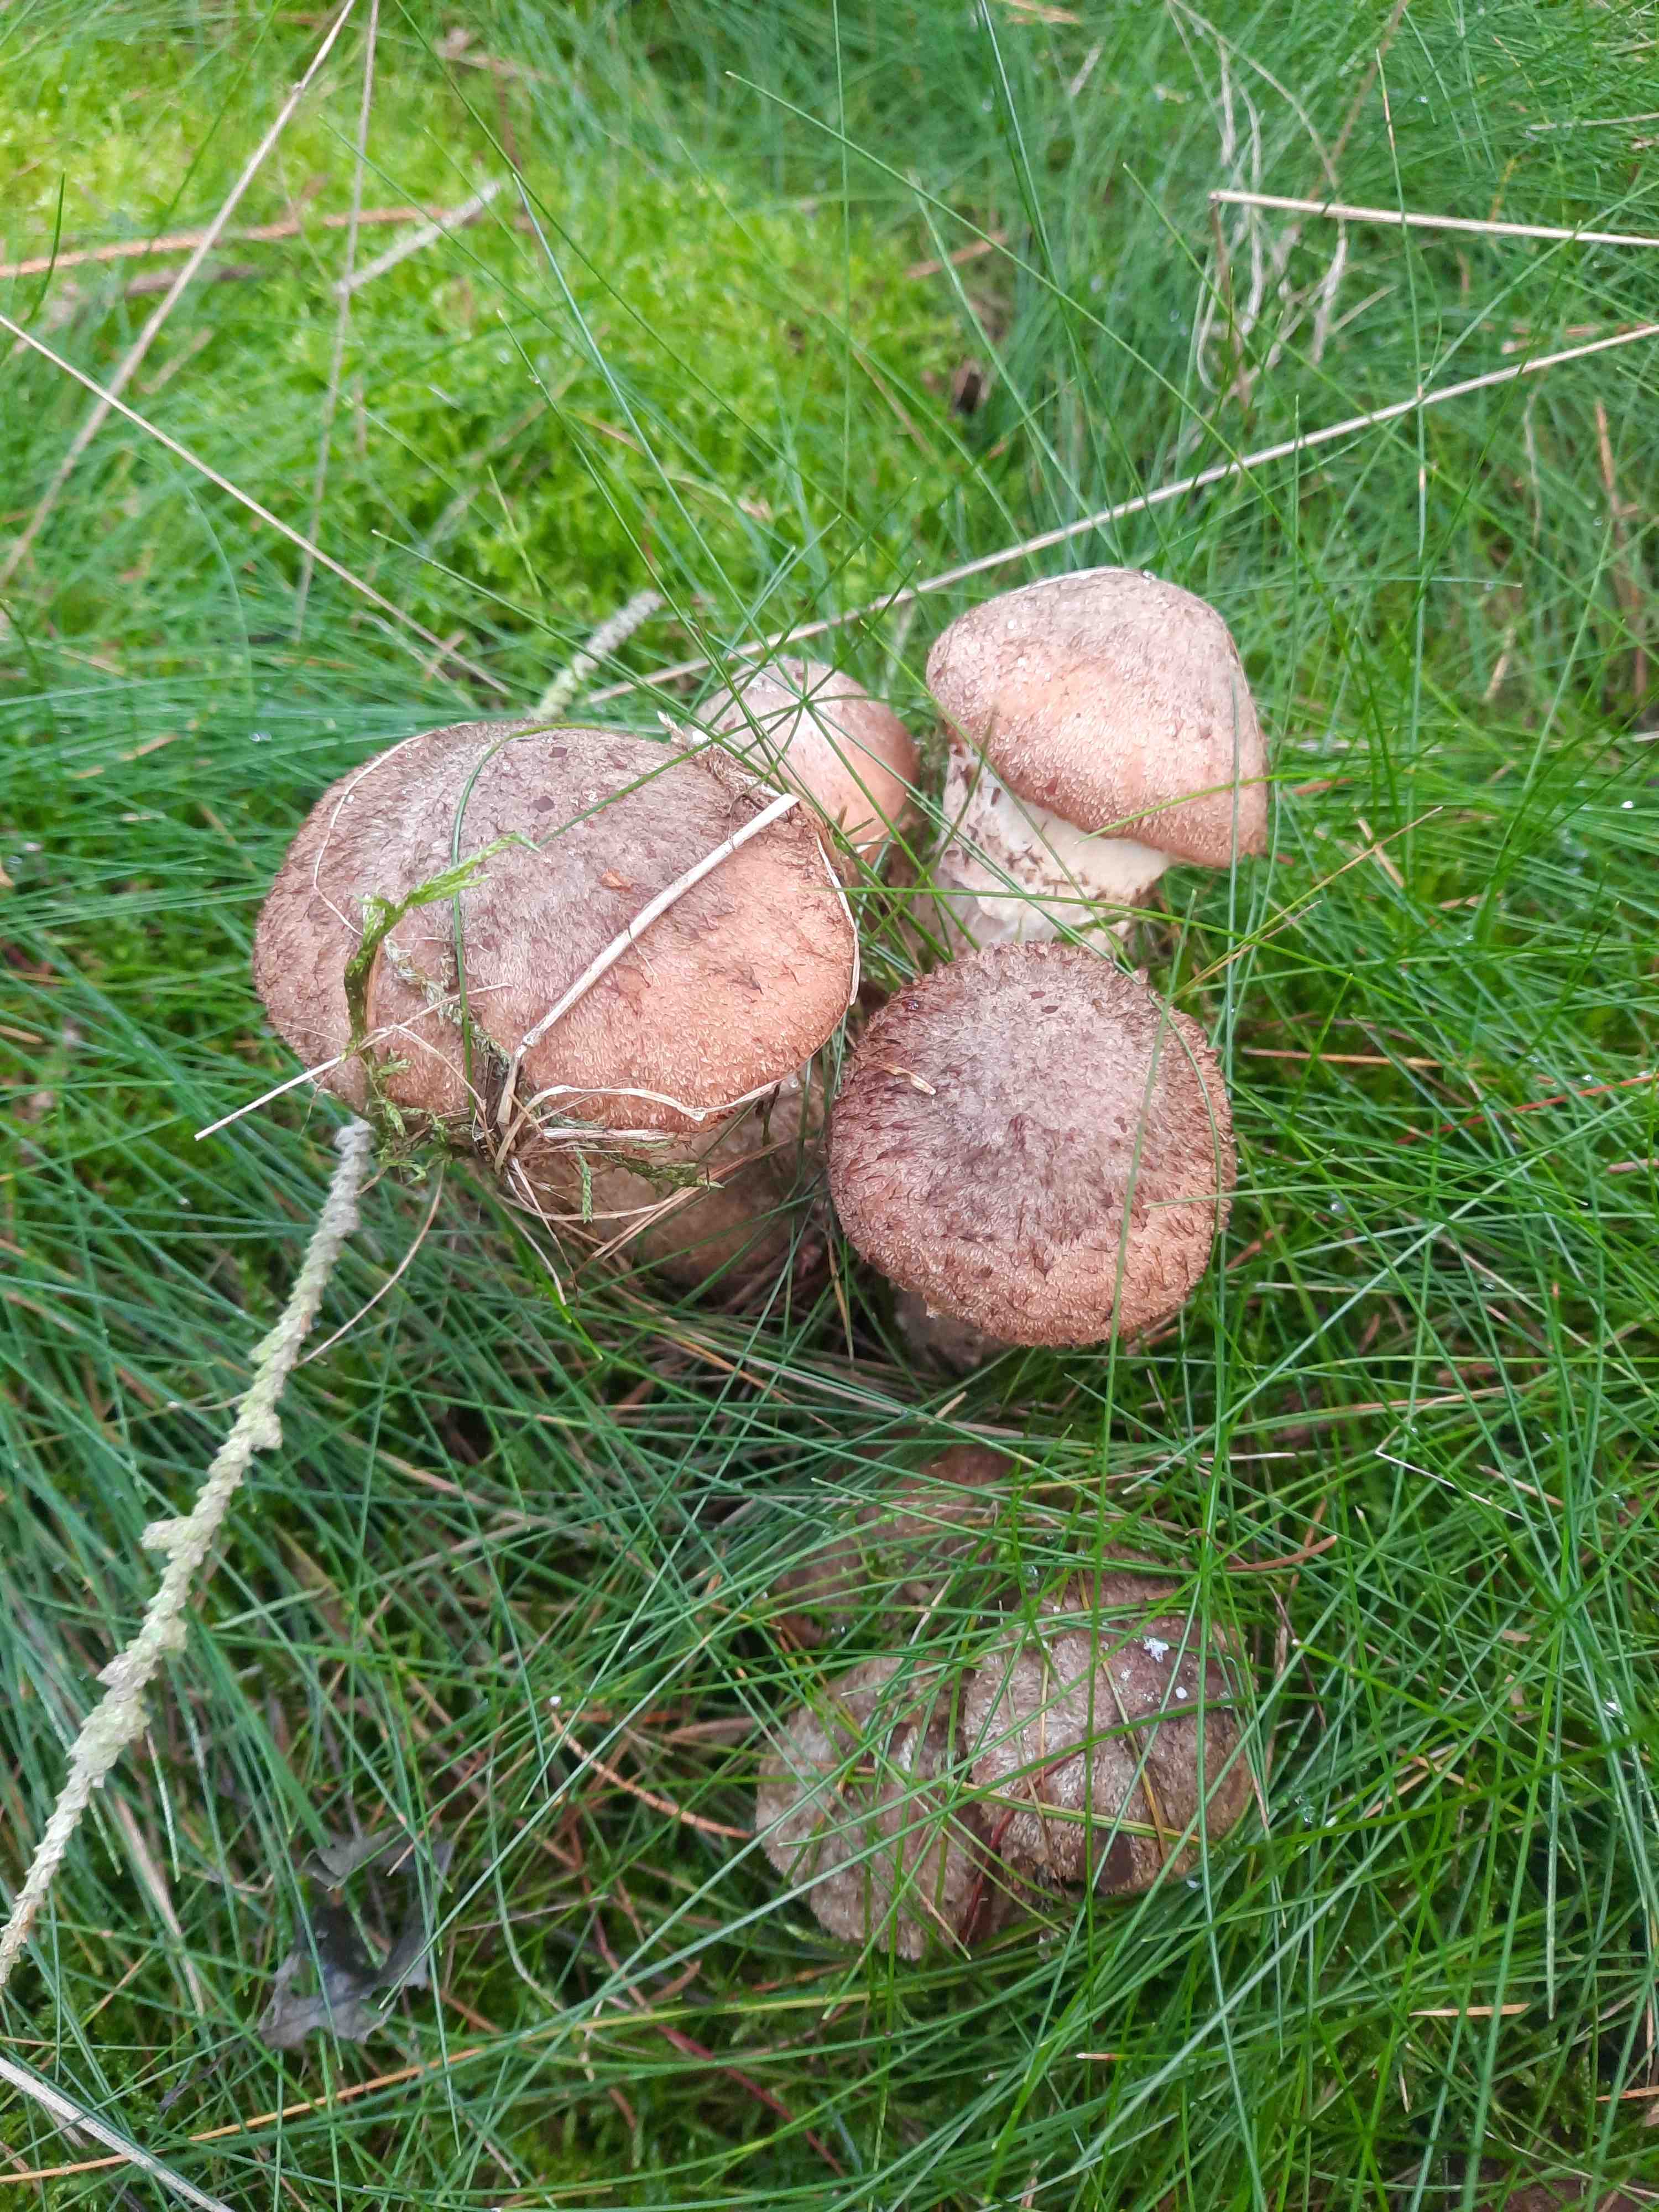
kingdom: Fungi
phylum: Basidiomycota
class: Agaricomycetes
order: Agaricales
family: Physalacriaceae
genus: Armillaria
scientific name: Armillaria ostoyae
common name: mørk honningsvamp
